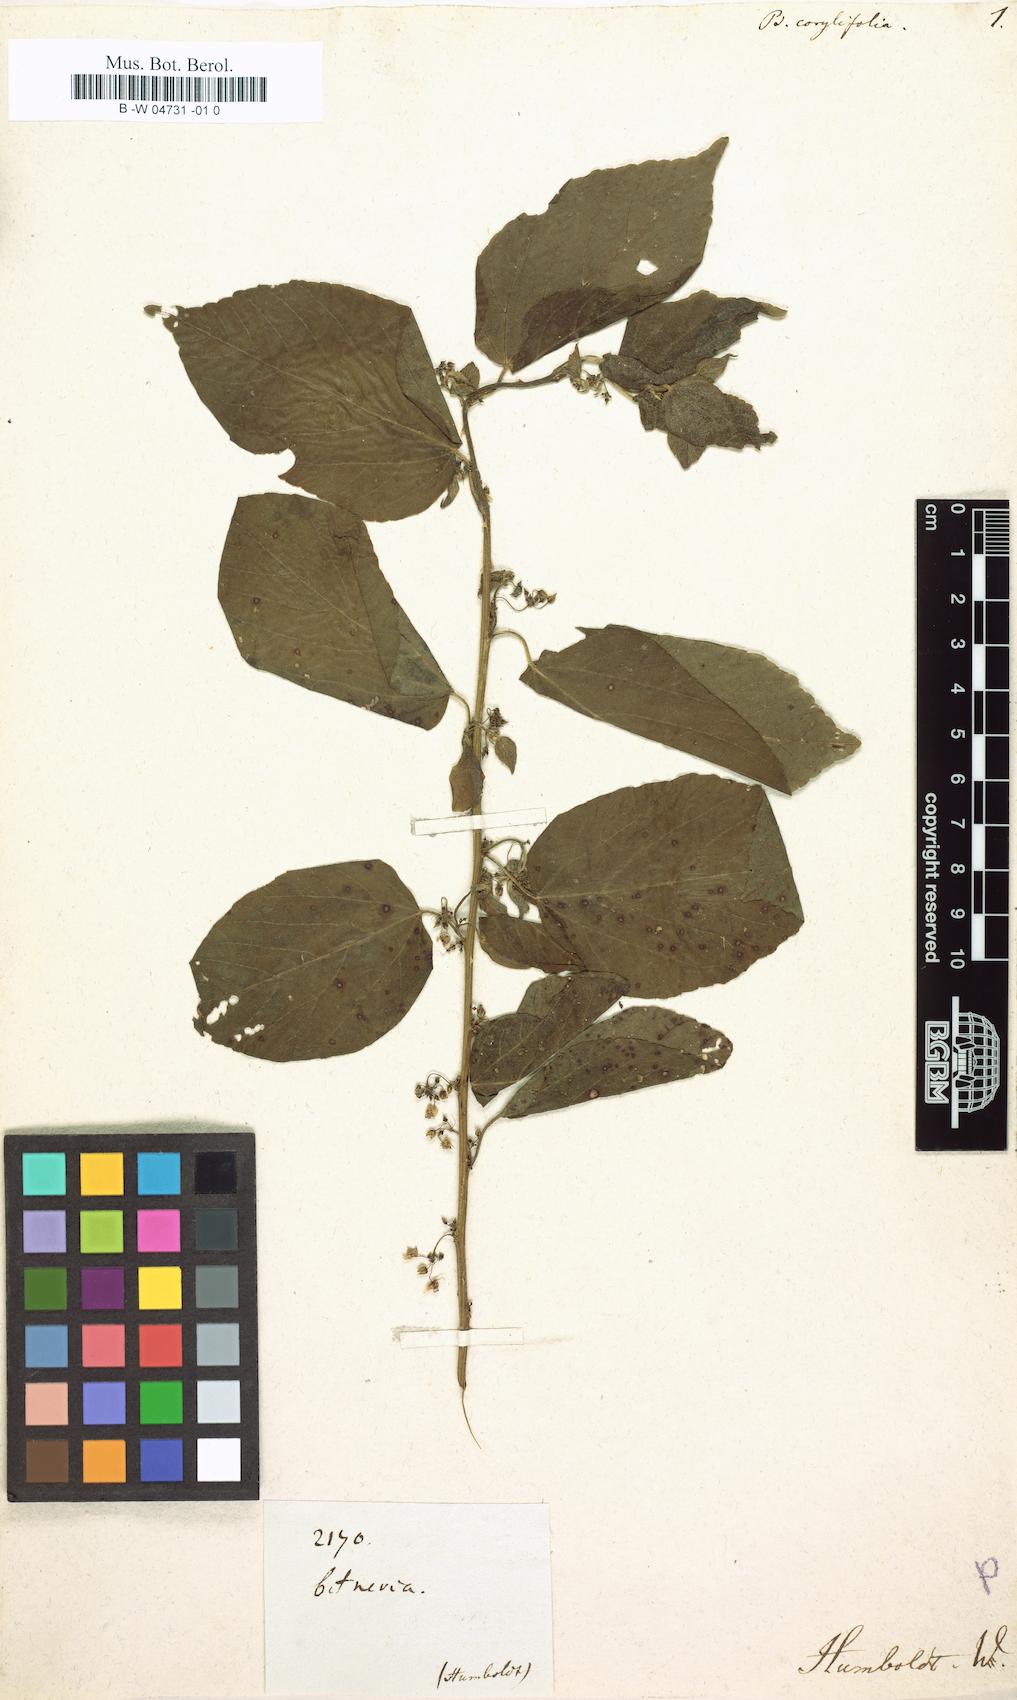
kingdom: Plantae
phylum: Tracheophyta
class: Magnoliopsida
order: Malvales
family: Malvaceae
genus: Byttneria
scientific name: Byttneria corylifolia
